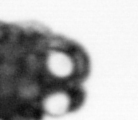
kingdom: Animalia
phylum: Annelida
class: Polychaeta
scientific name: Polychaeta
